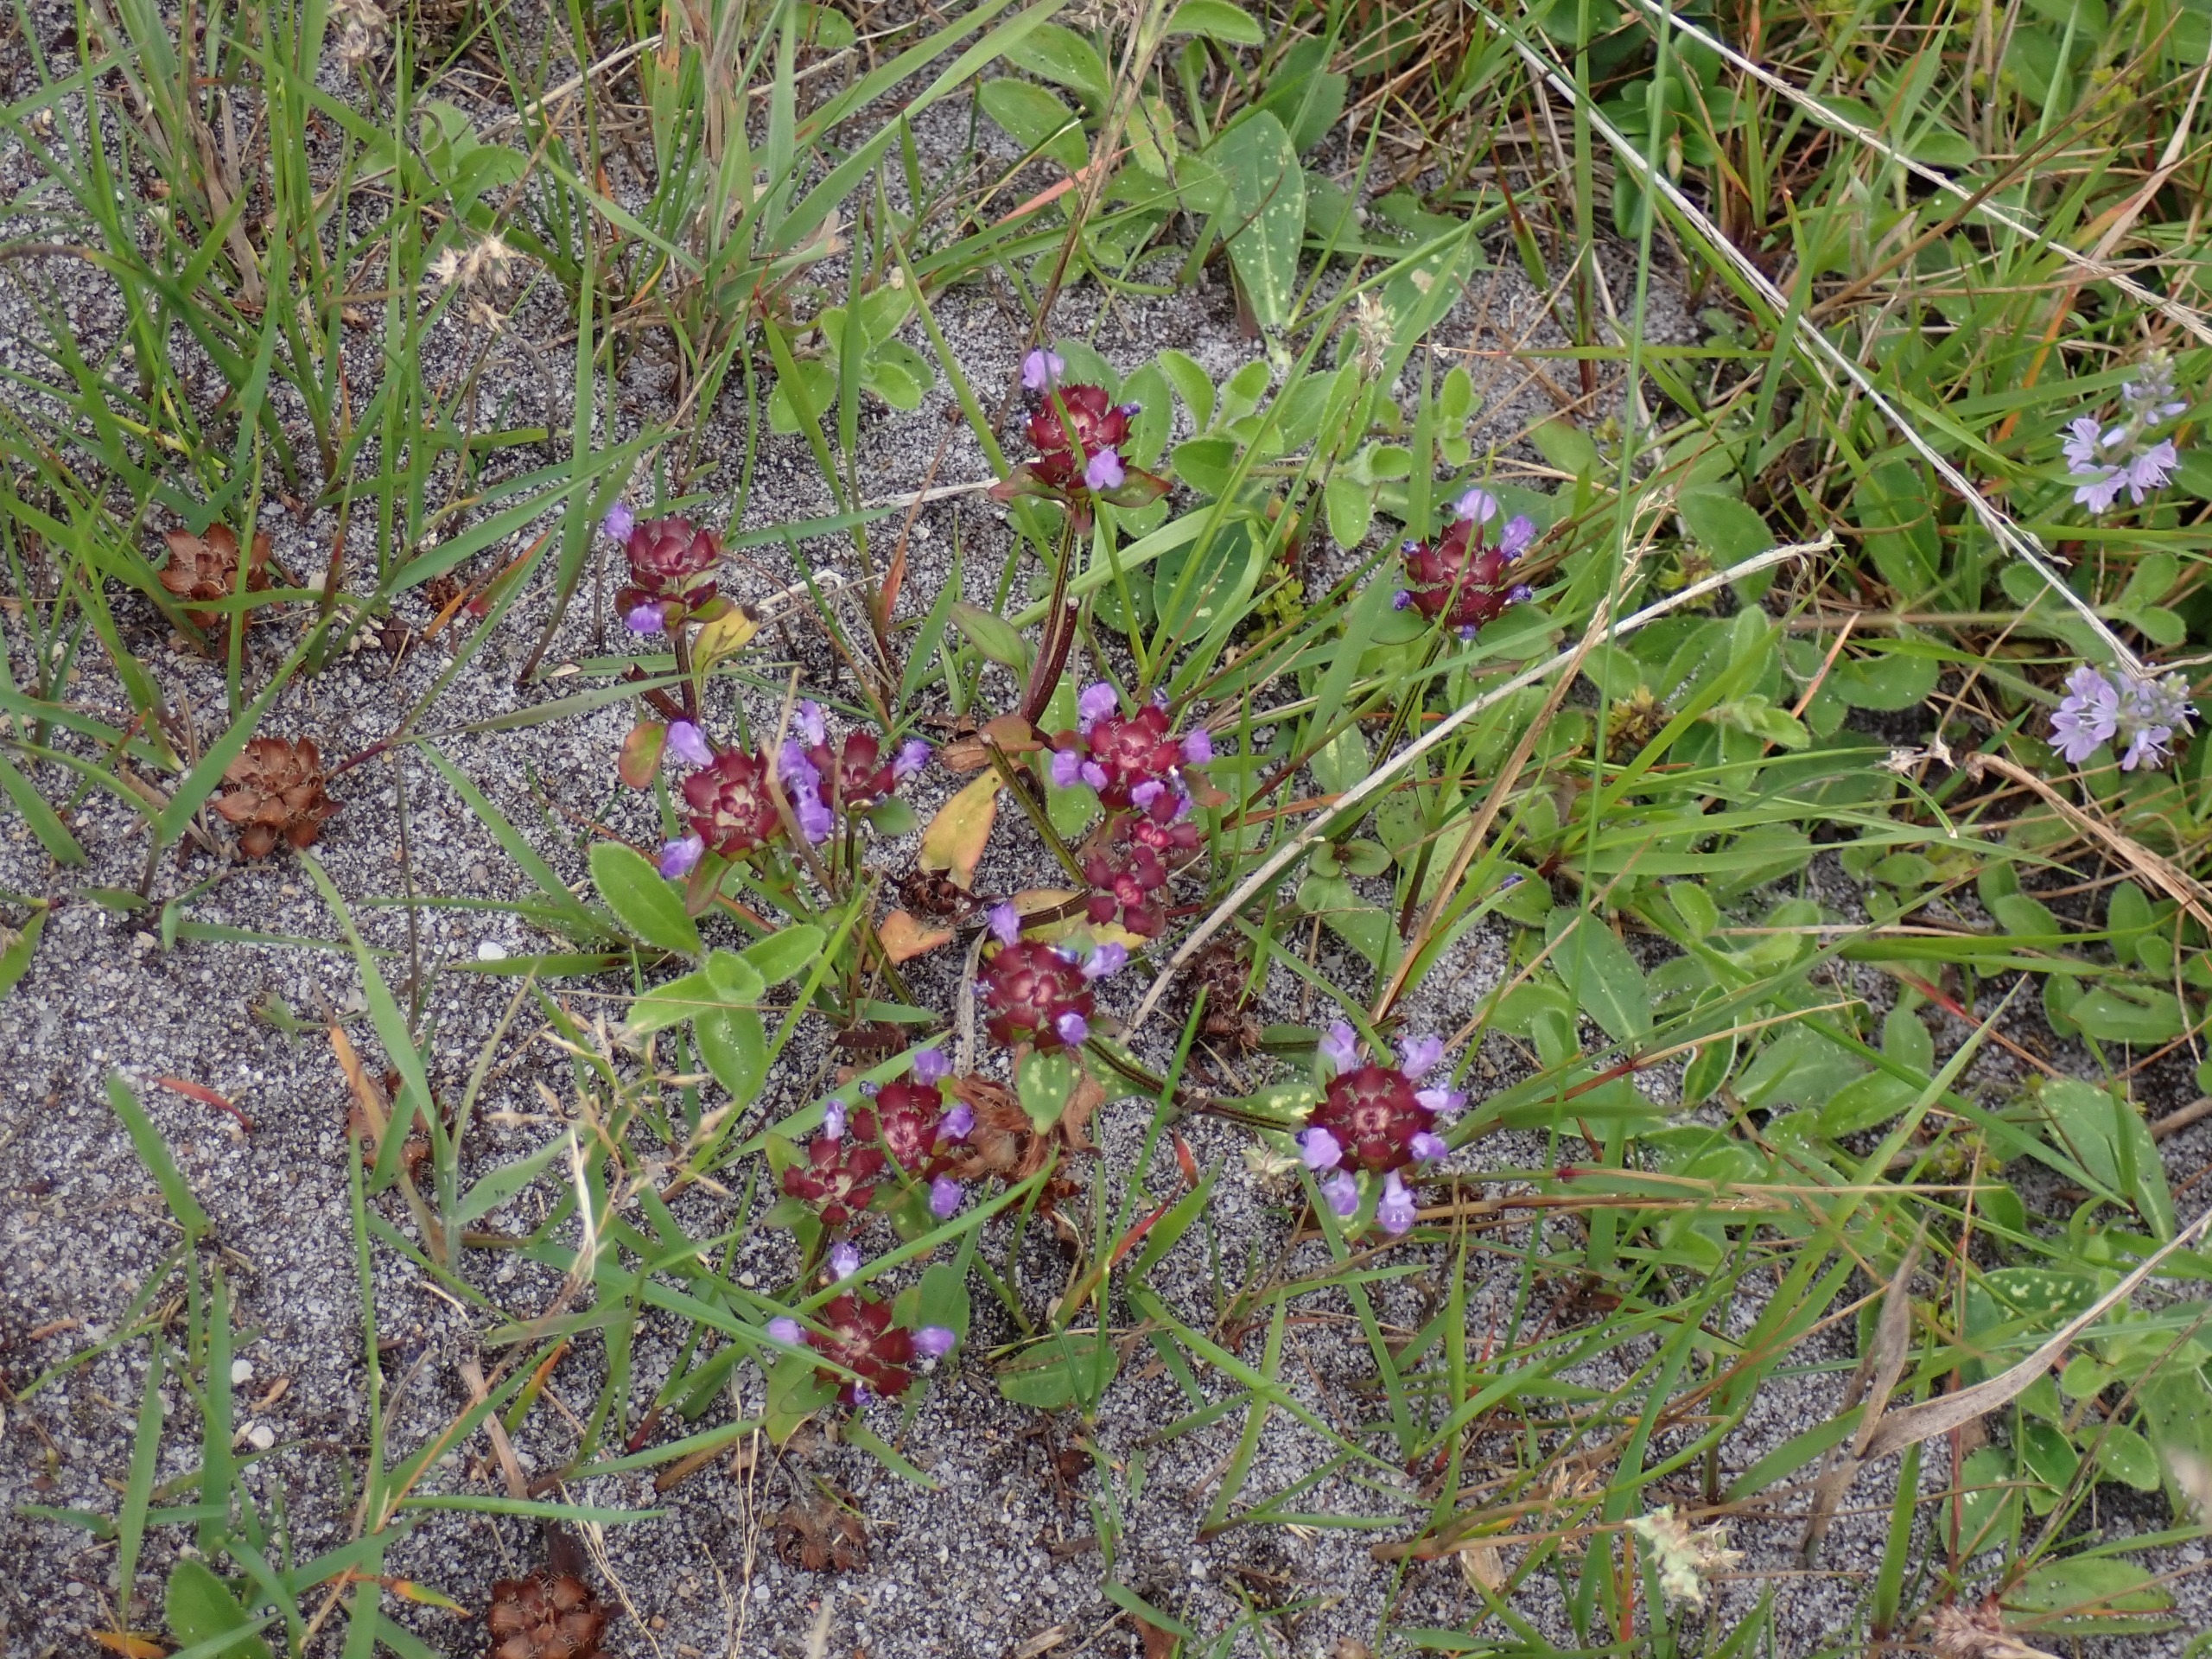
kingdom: Plantae
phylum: Tracheophyta
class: Magnoliopsida
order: Lamiales
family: Lamiaceae
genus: Prunella
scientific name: Prunella vulgaris
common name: Almindelig brunelle
